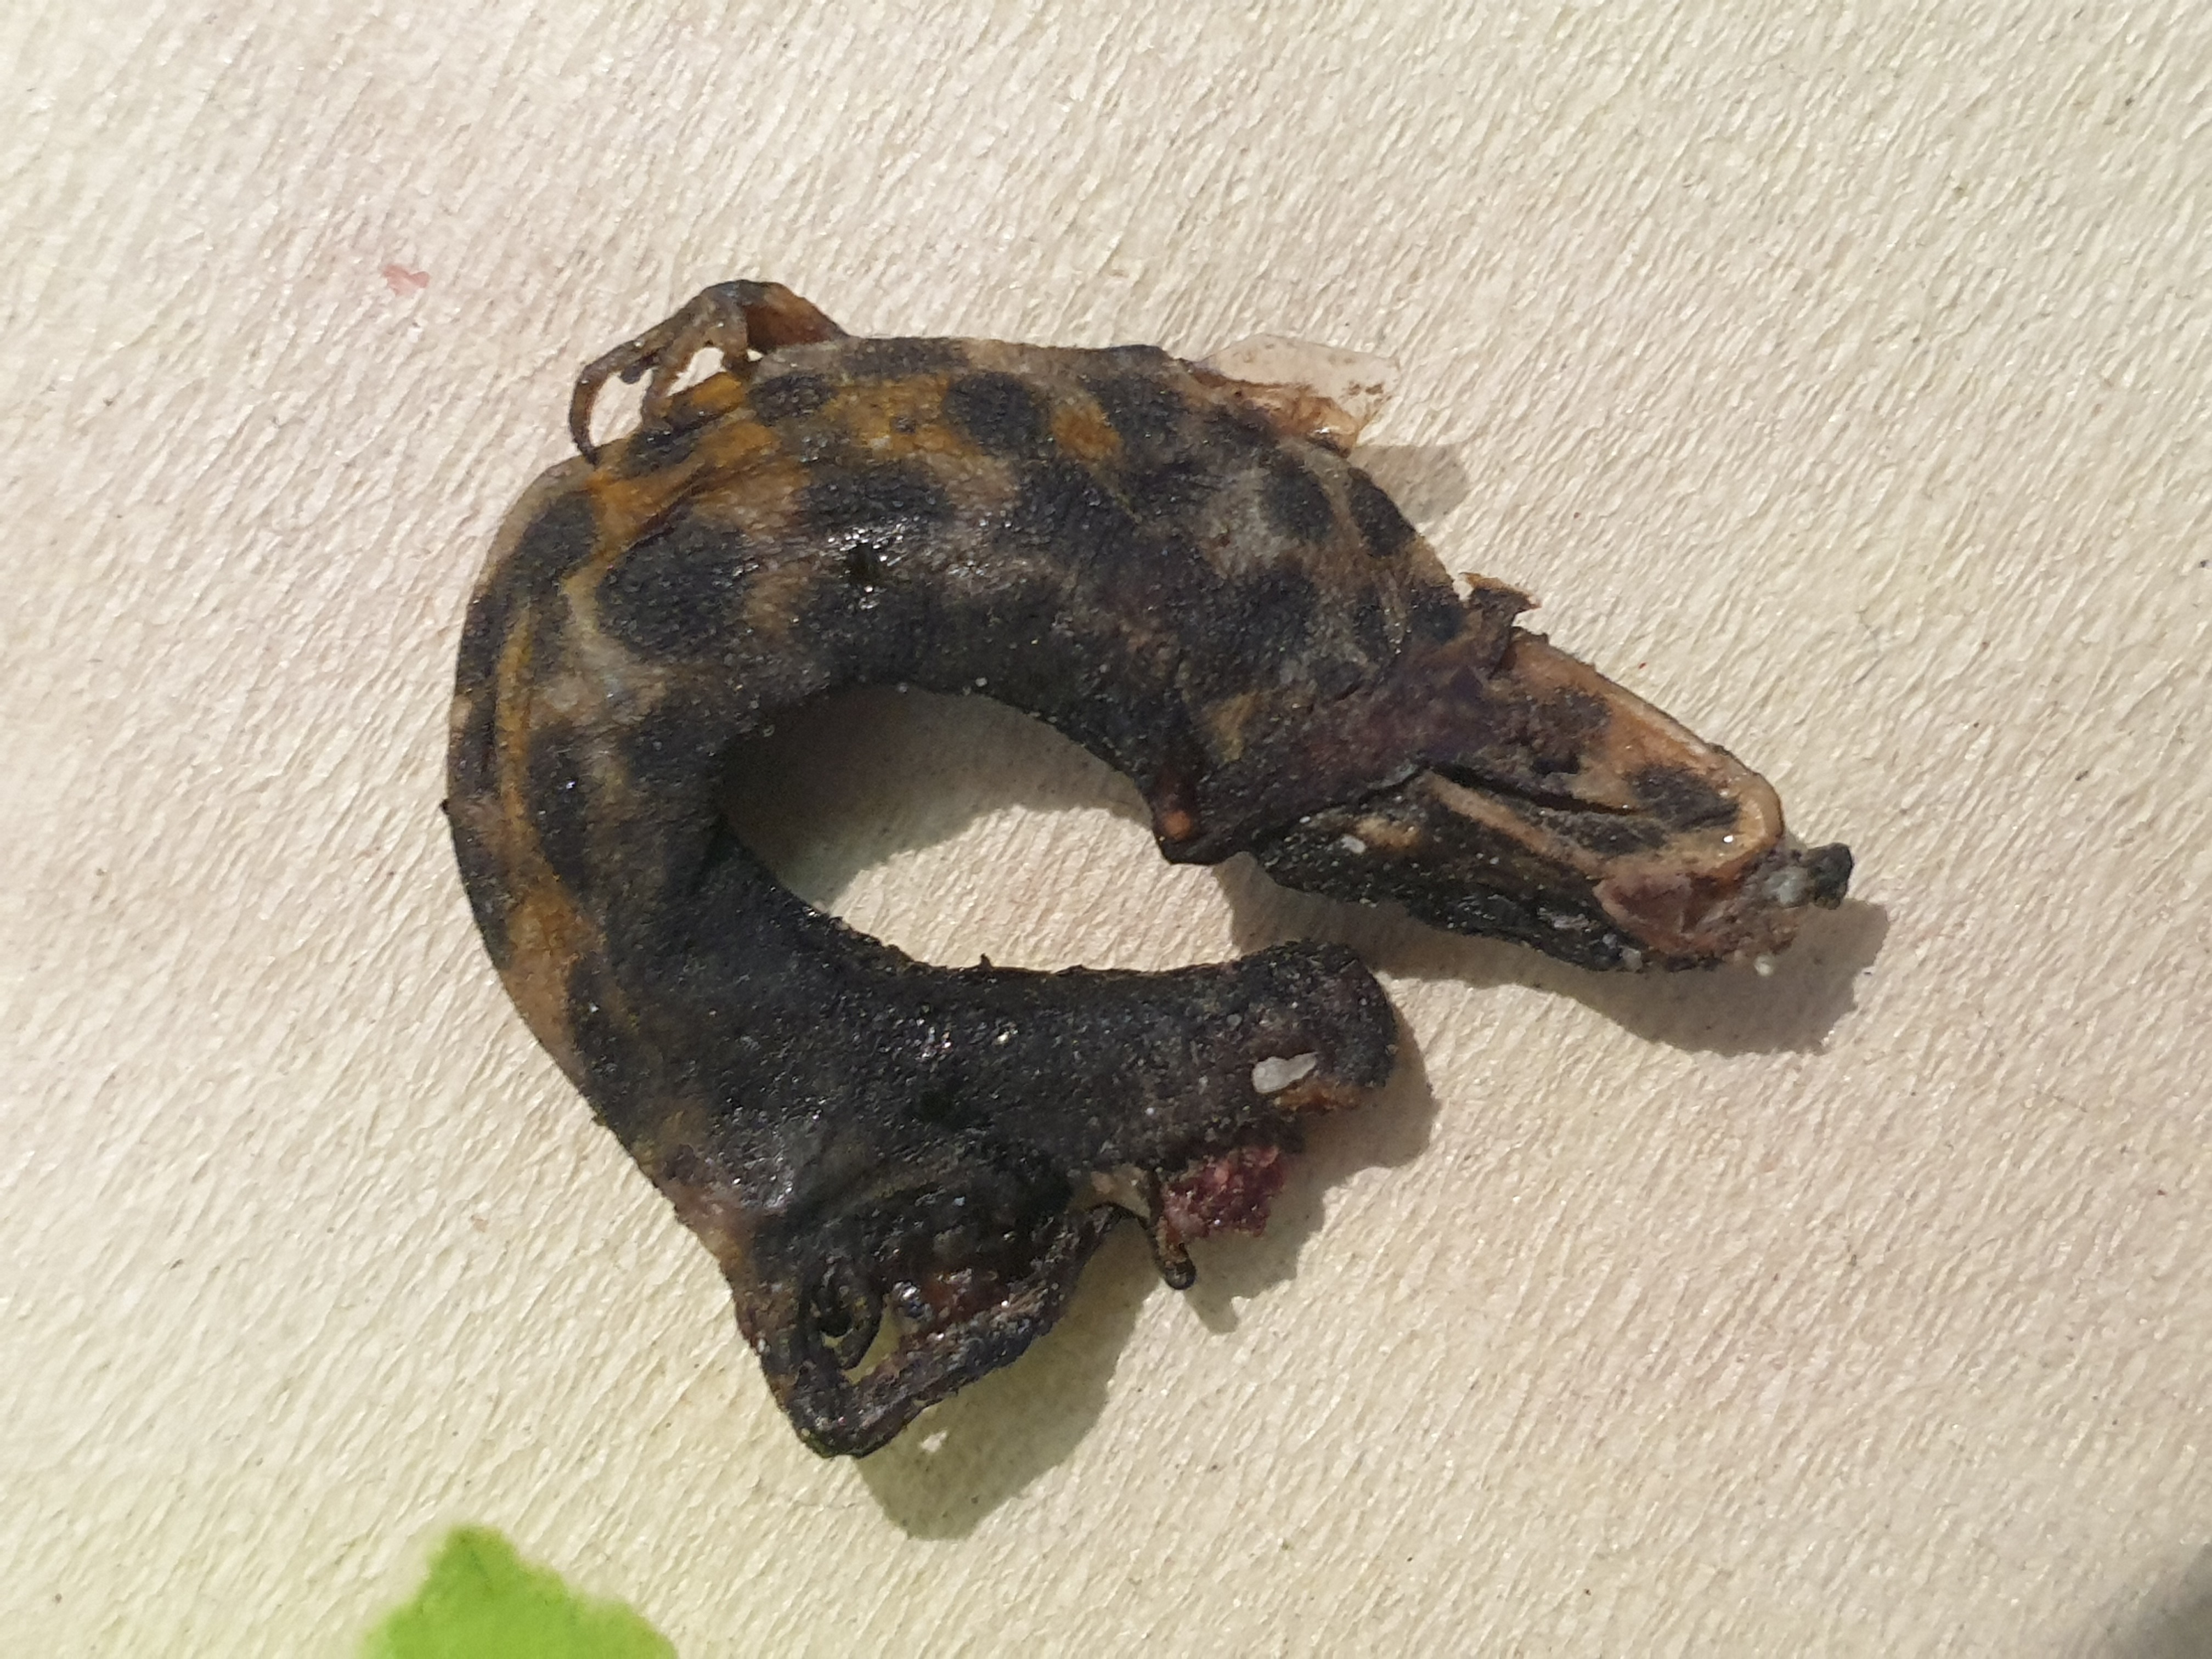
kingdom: Animalia
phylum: Chordata
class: Amphibia
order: Caudata
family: Salamandridae
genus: Lissotriton
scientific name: Lissotriton vulgaris
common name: Smooth newt
